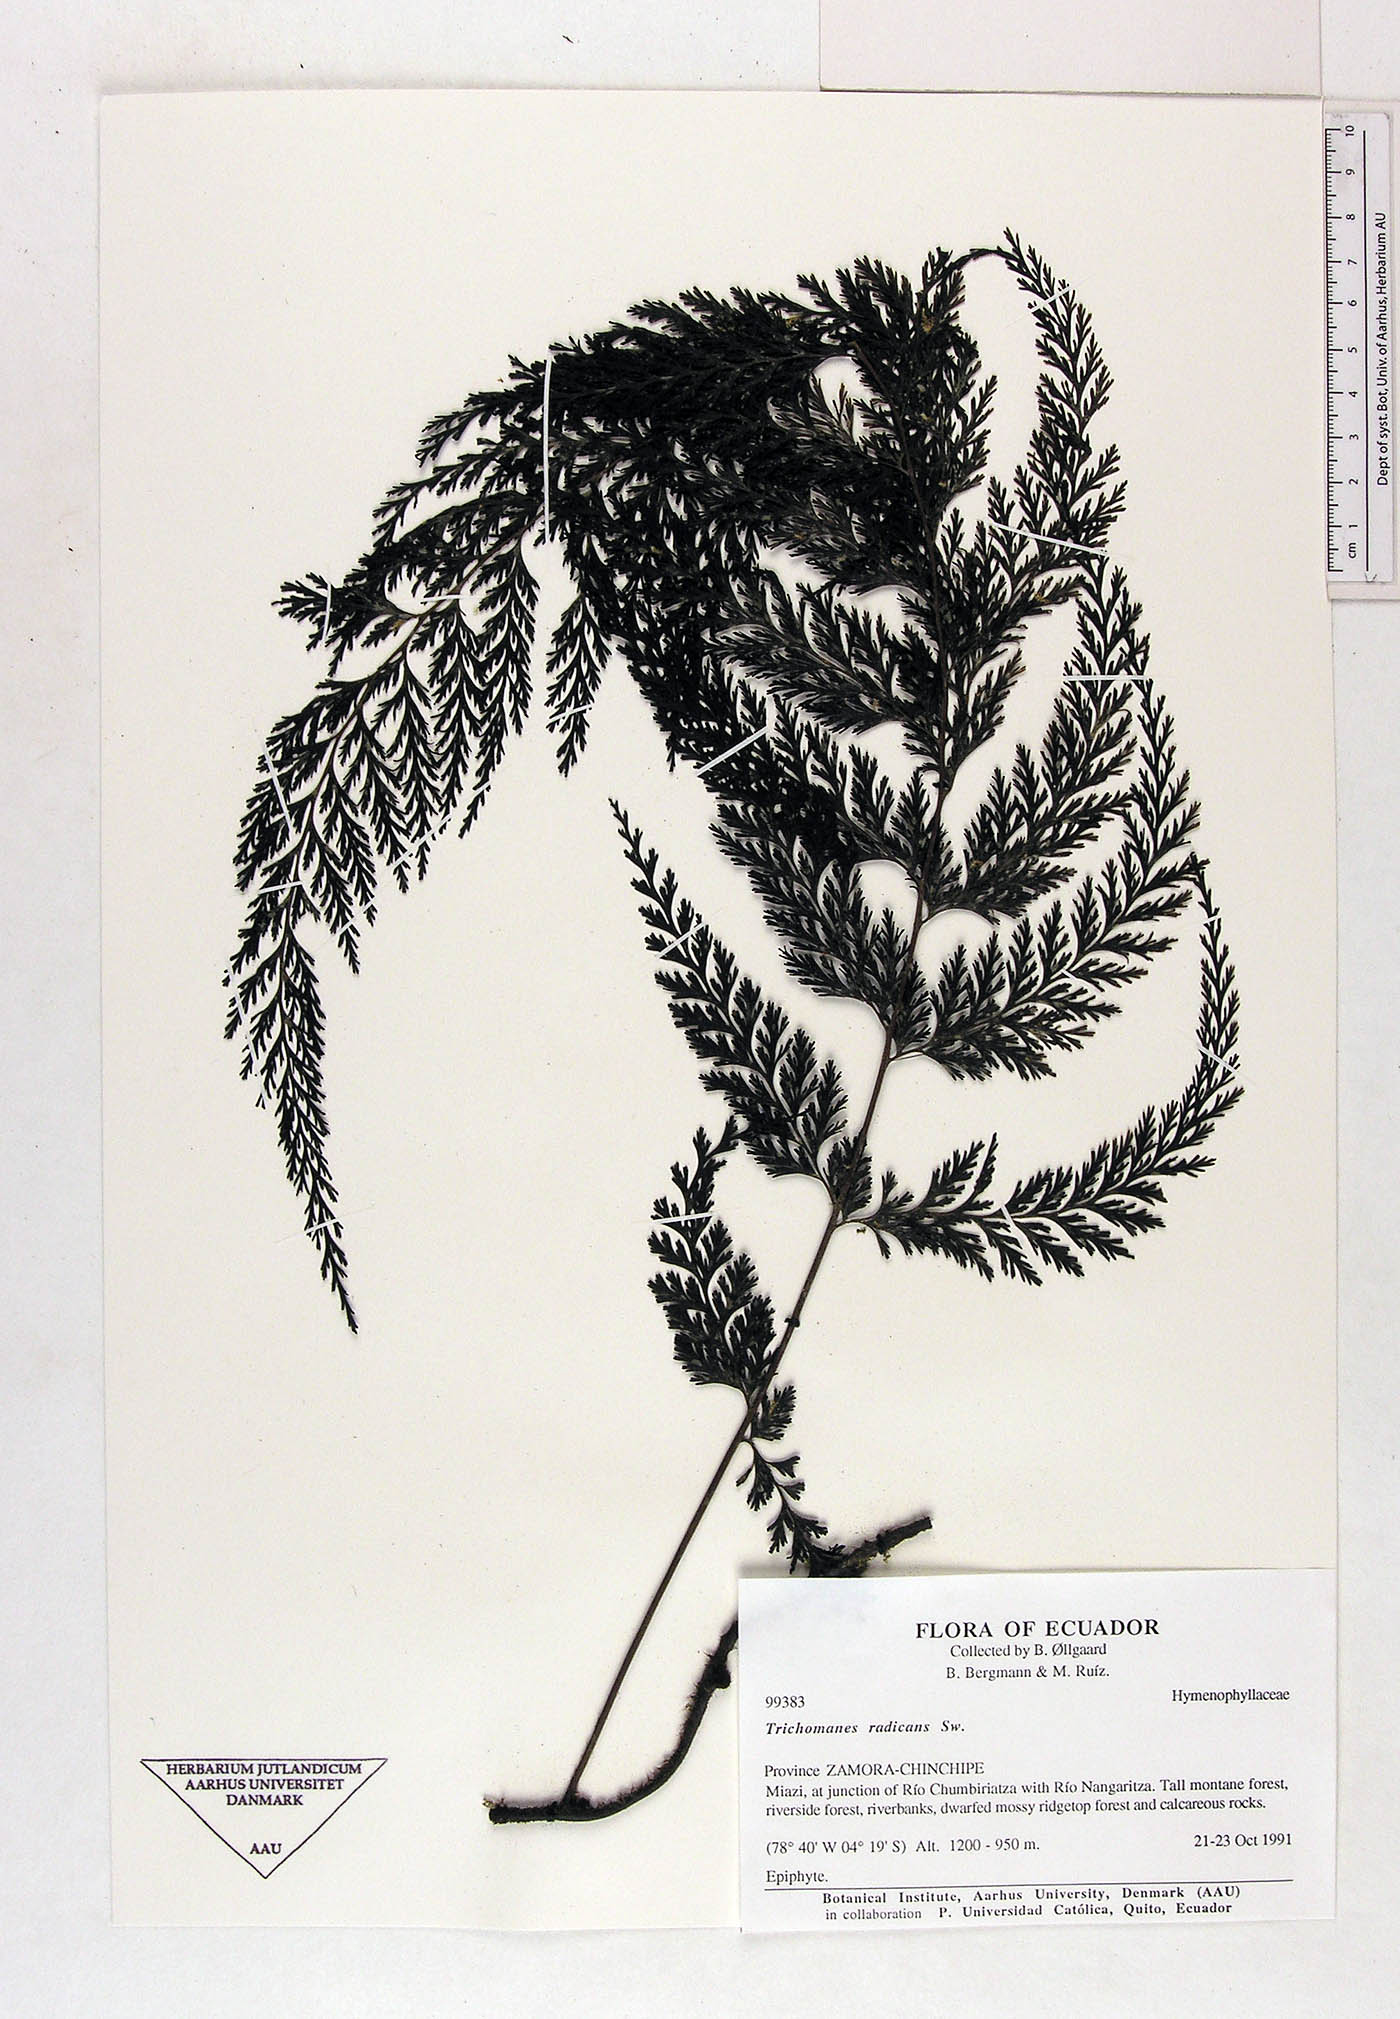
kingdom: Plantae
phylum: Tracheophyta
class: Polypodiopsida
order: Hymenophyllales
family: Hymenophyllaceae
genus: Vandenboschia
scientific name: Vandenboschia radicans
